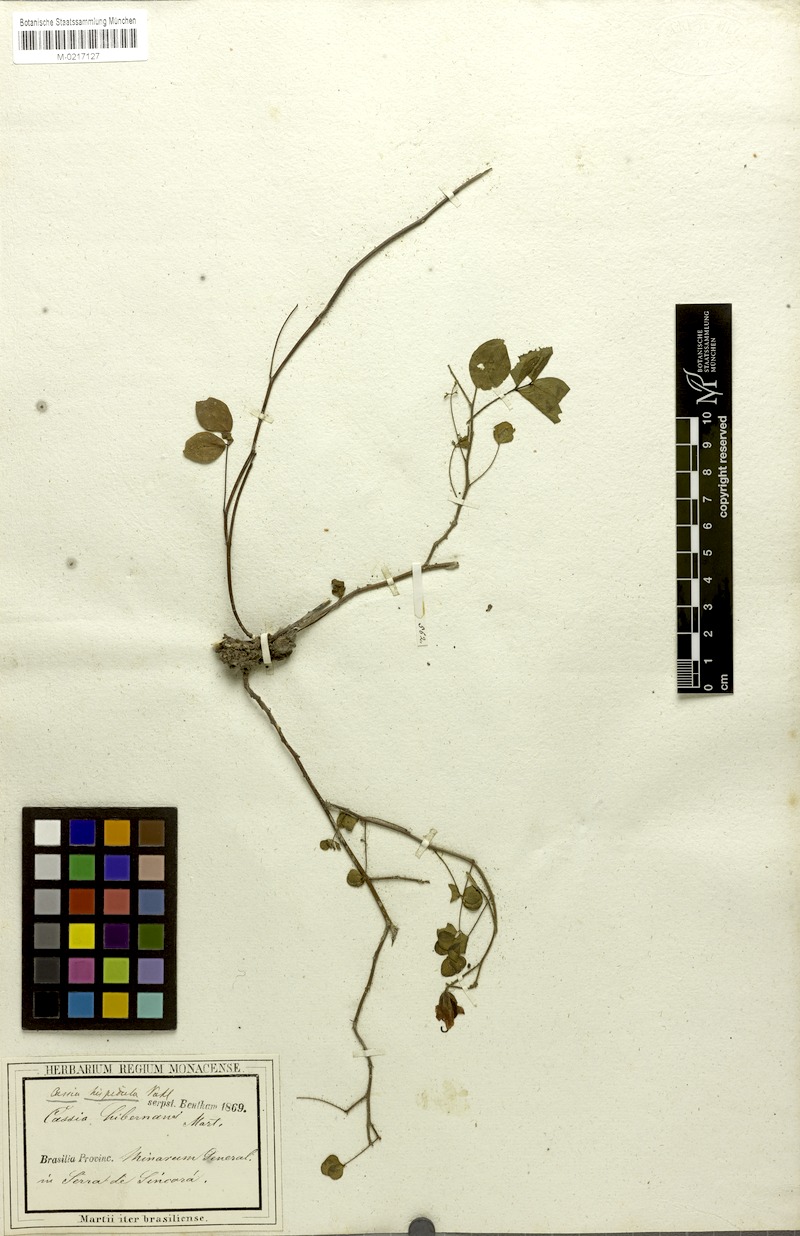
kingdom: Plantae
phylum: Tracheophyta
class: Magnoliopsida
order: Fabales
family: Fabaceae
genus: Chamaecrista
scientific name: Chamaecrista hispidula
